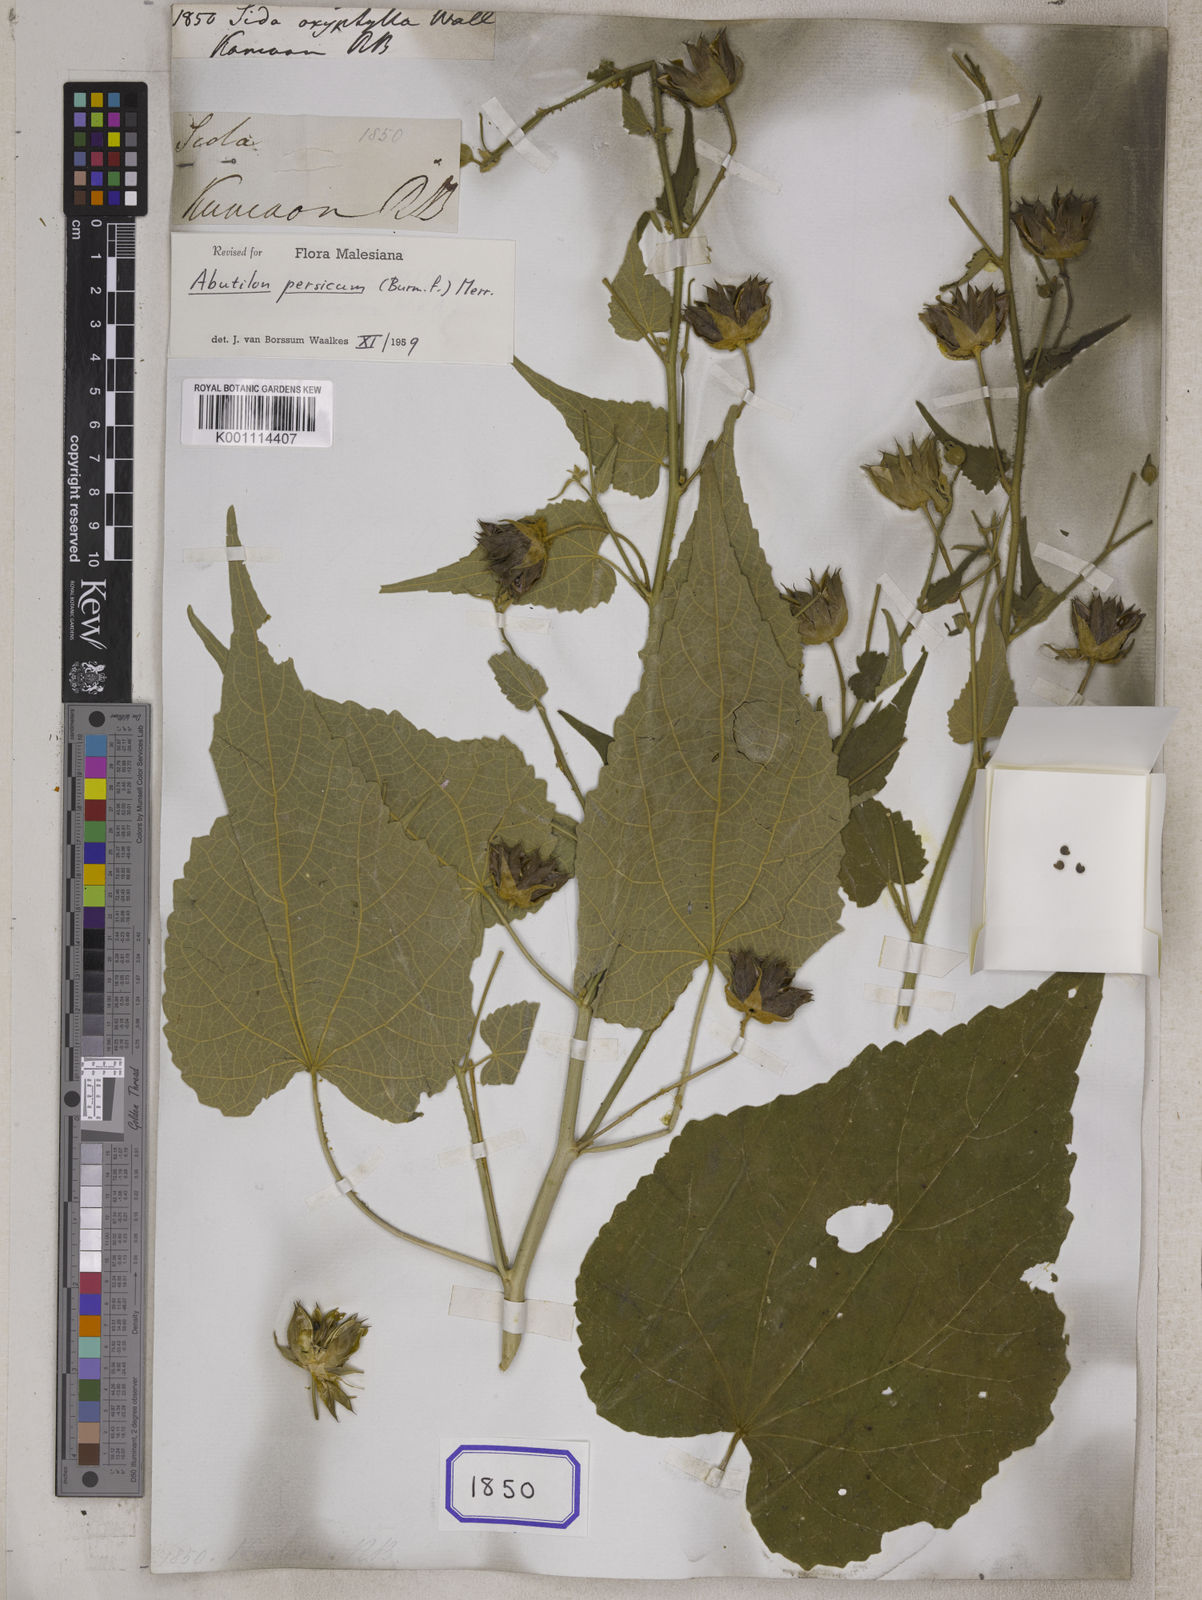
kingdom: Plantae
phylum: Tracheophyta
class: Magnoliopsida
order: Malvales
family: Malvaceae
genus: Abutilon
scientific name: Abutilon persicum
